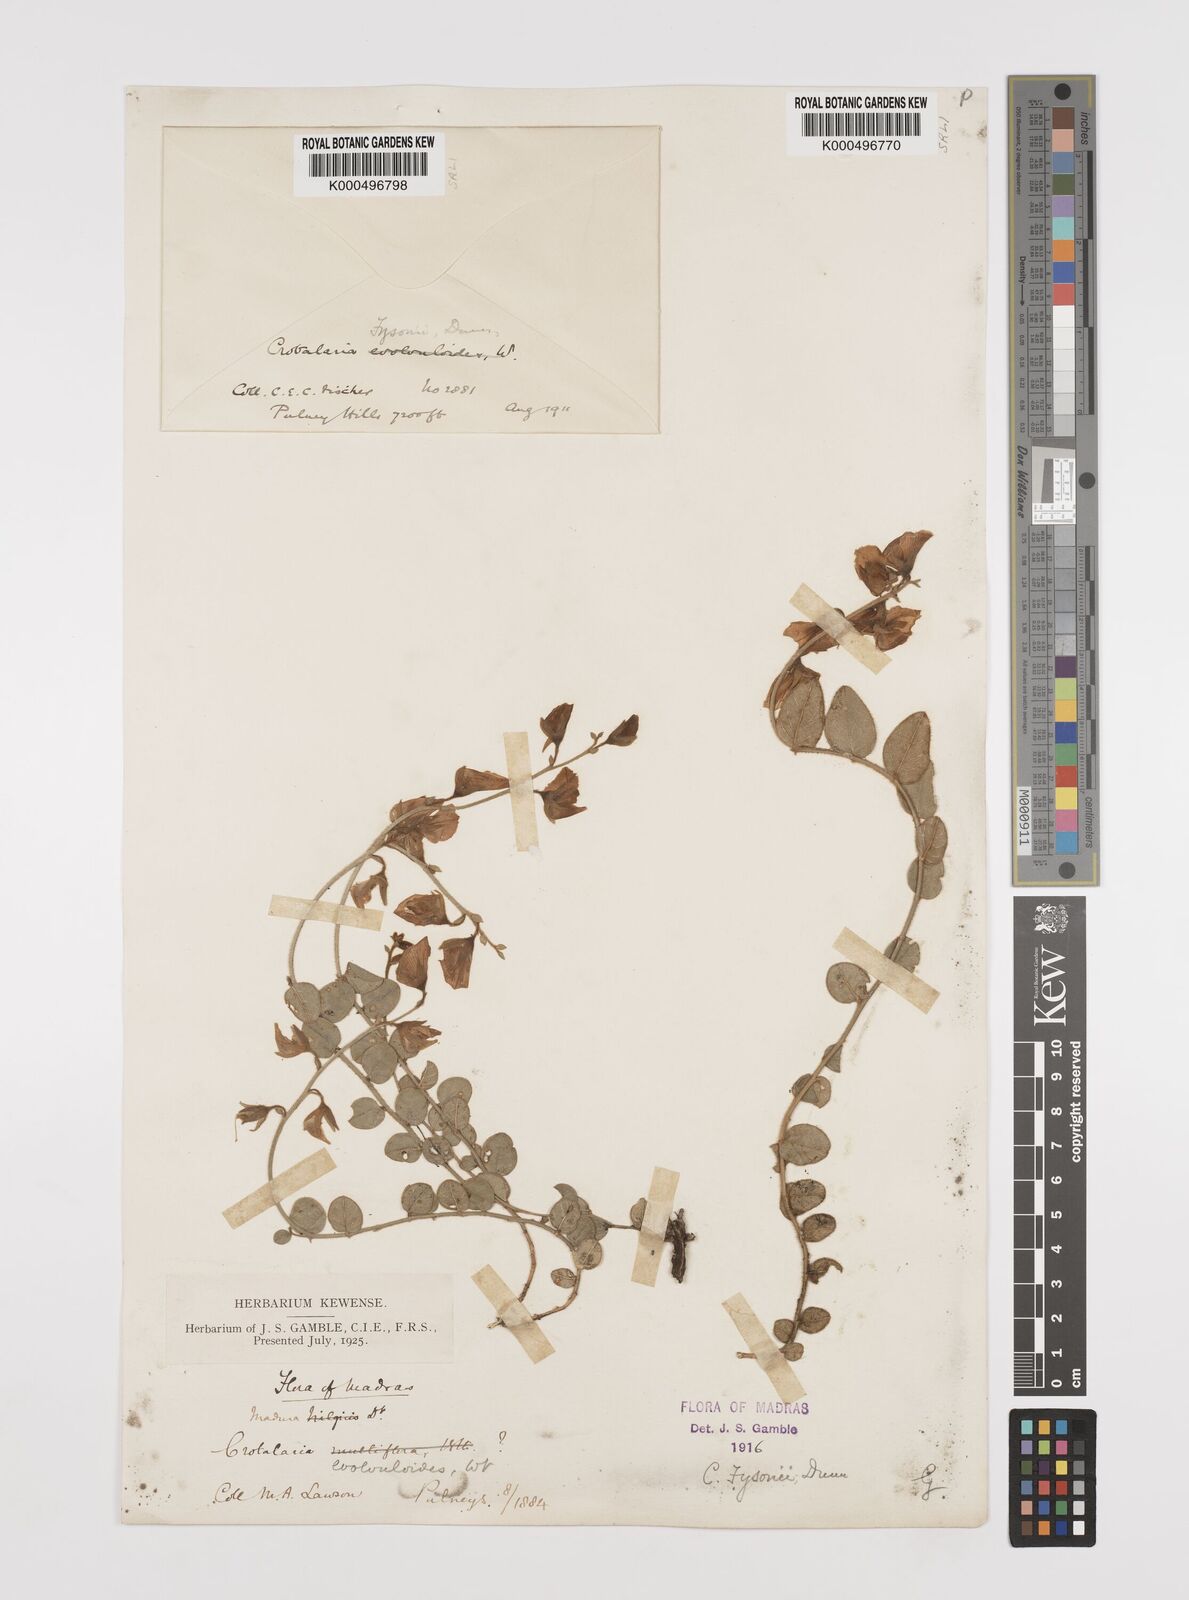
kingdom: Plantae
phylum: Tracheophyta
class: Magnoliopsida
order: Fabales
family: Fabaceae
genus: Crotalaria
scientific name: Crotalaria fysonii
